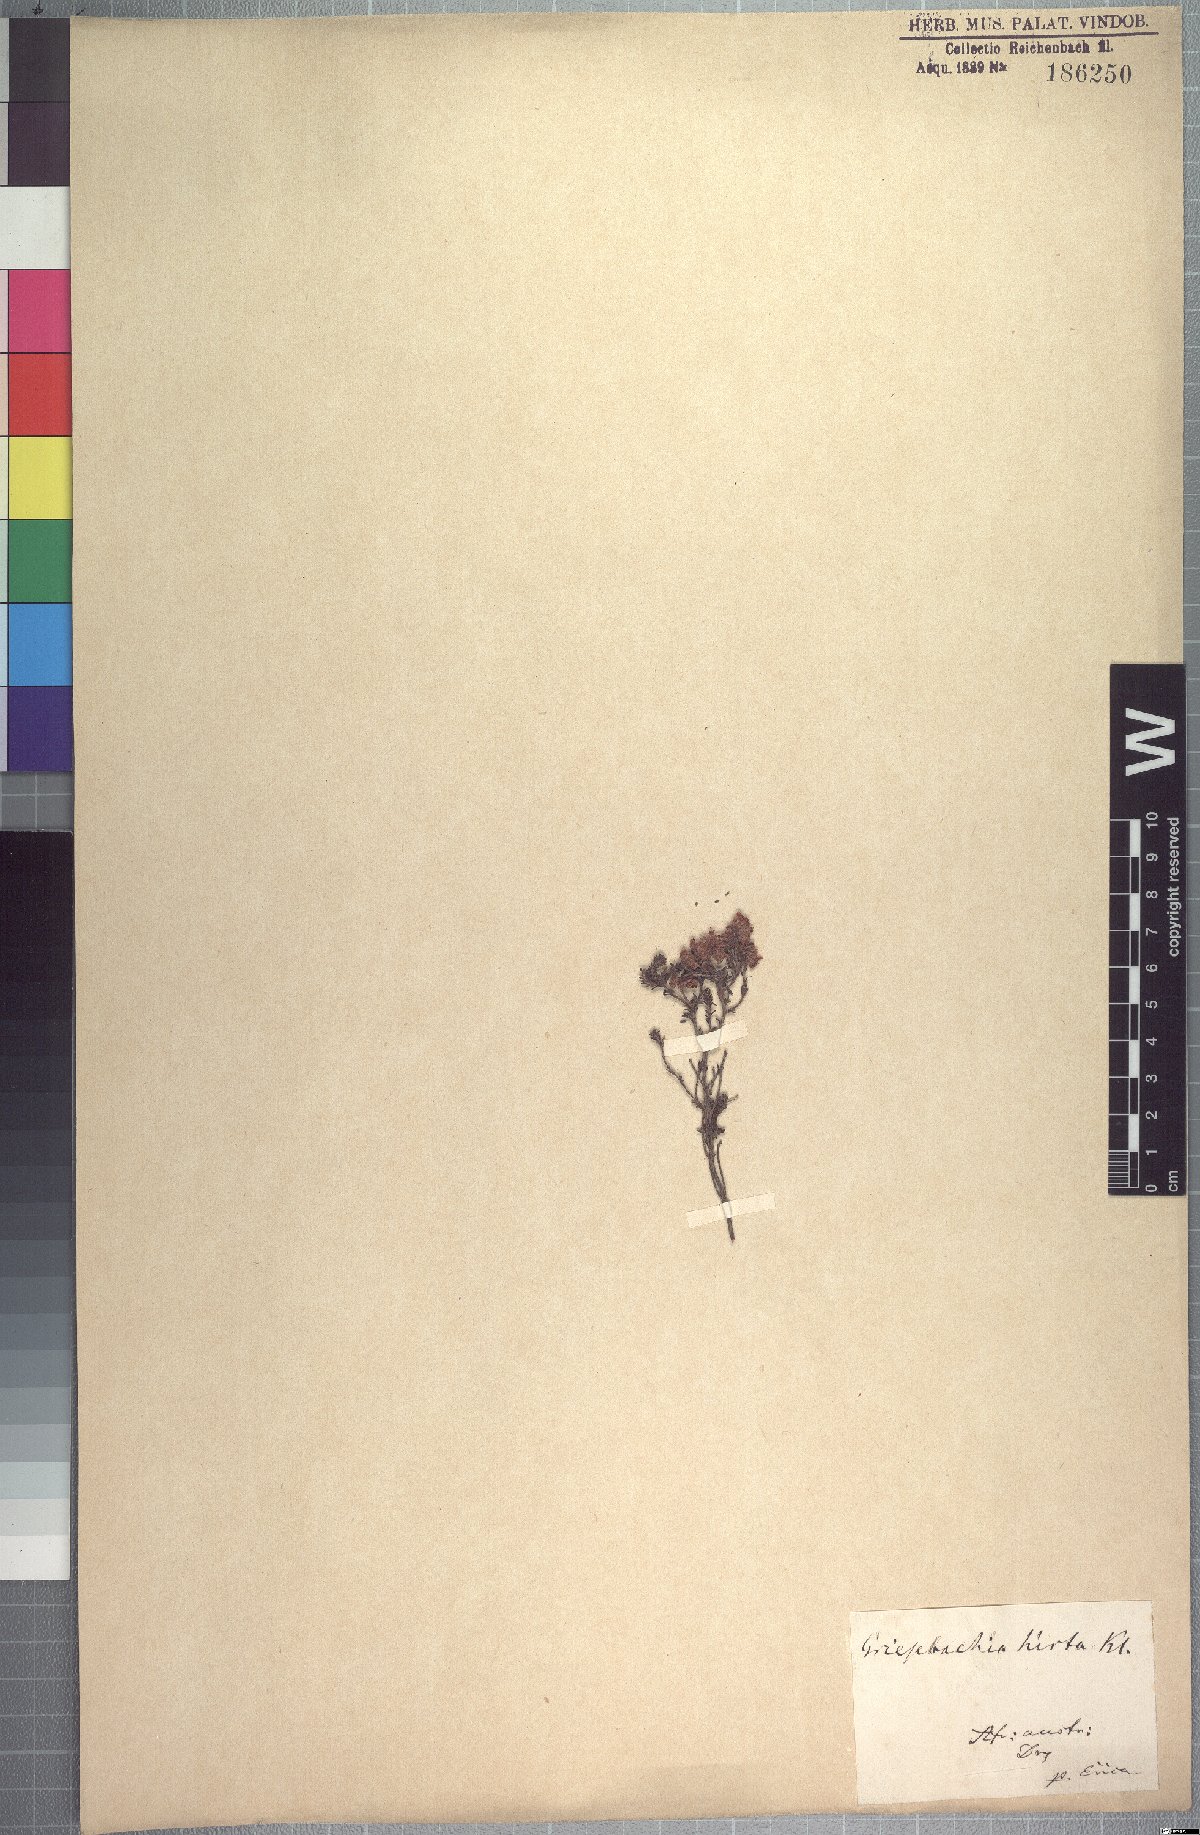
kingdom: Plantae
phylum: Tracheophyta
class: Magnoliopsida
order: Ericales
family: Ericaceae
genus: Erica
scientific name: Erica plumosa
